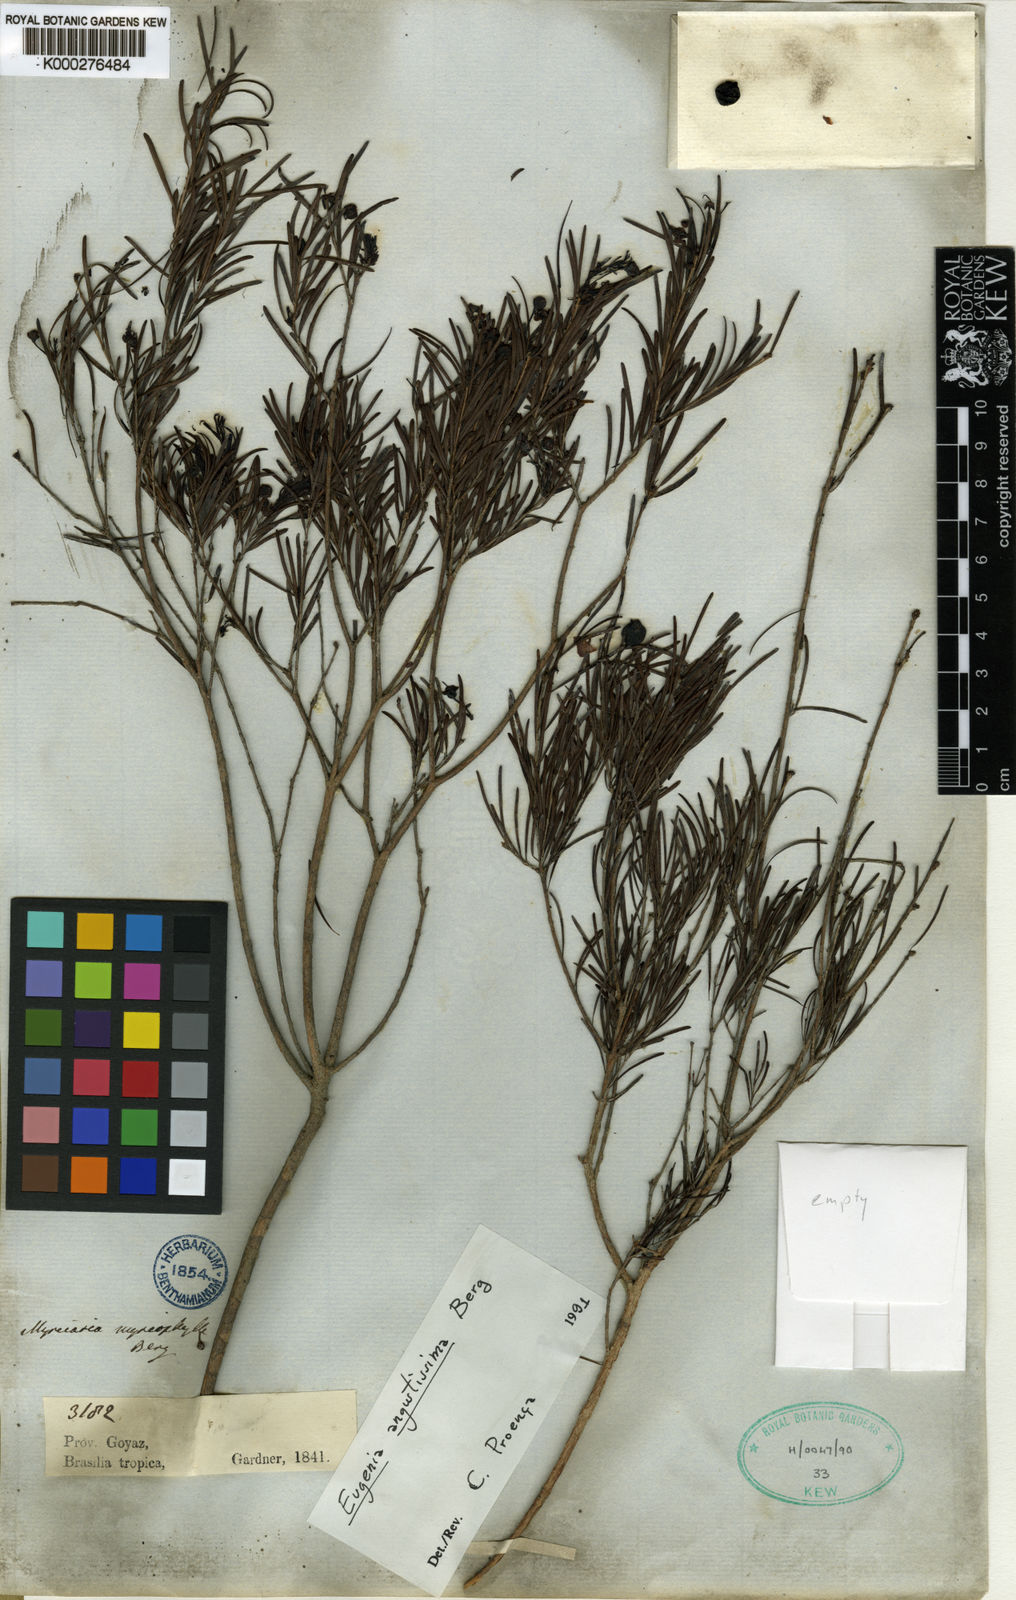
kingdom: Plantae
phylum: Tracheophyta
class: Magnoliopsida
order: Myrtales
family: Myrtaceae
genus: Eugenia
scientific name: Eugenia angustissima
